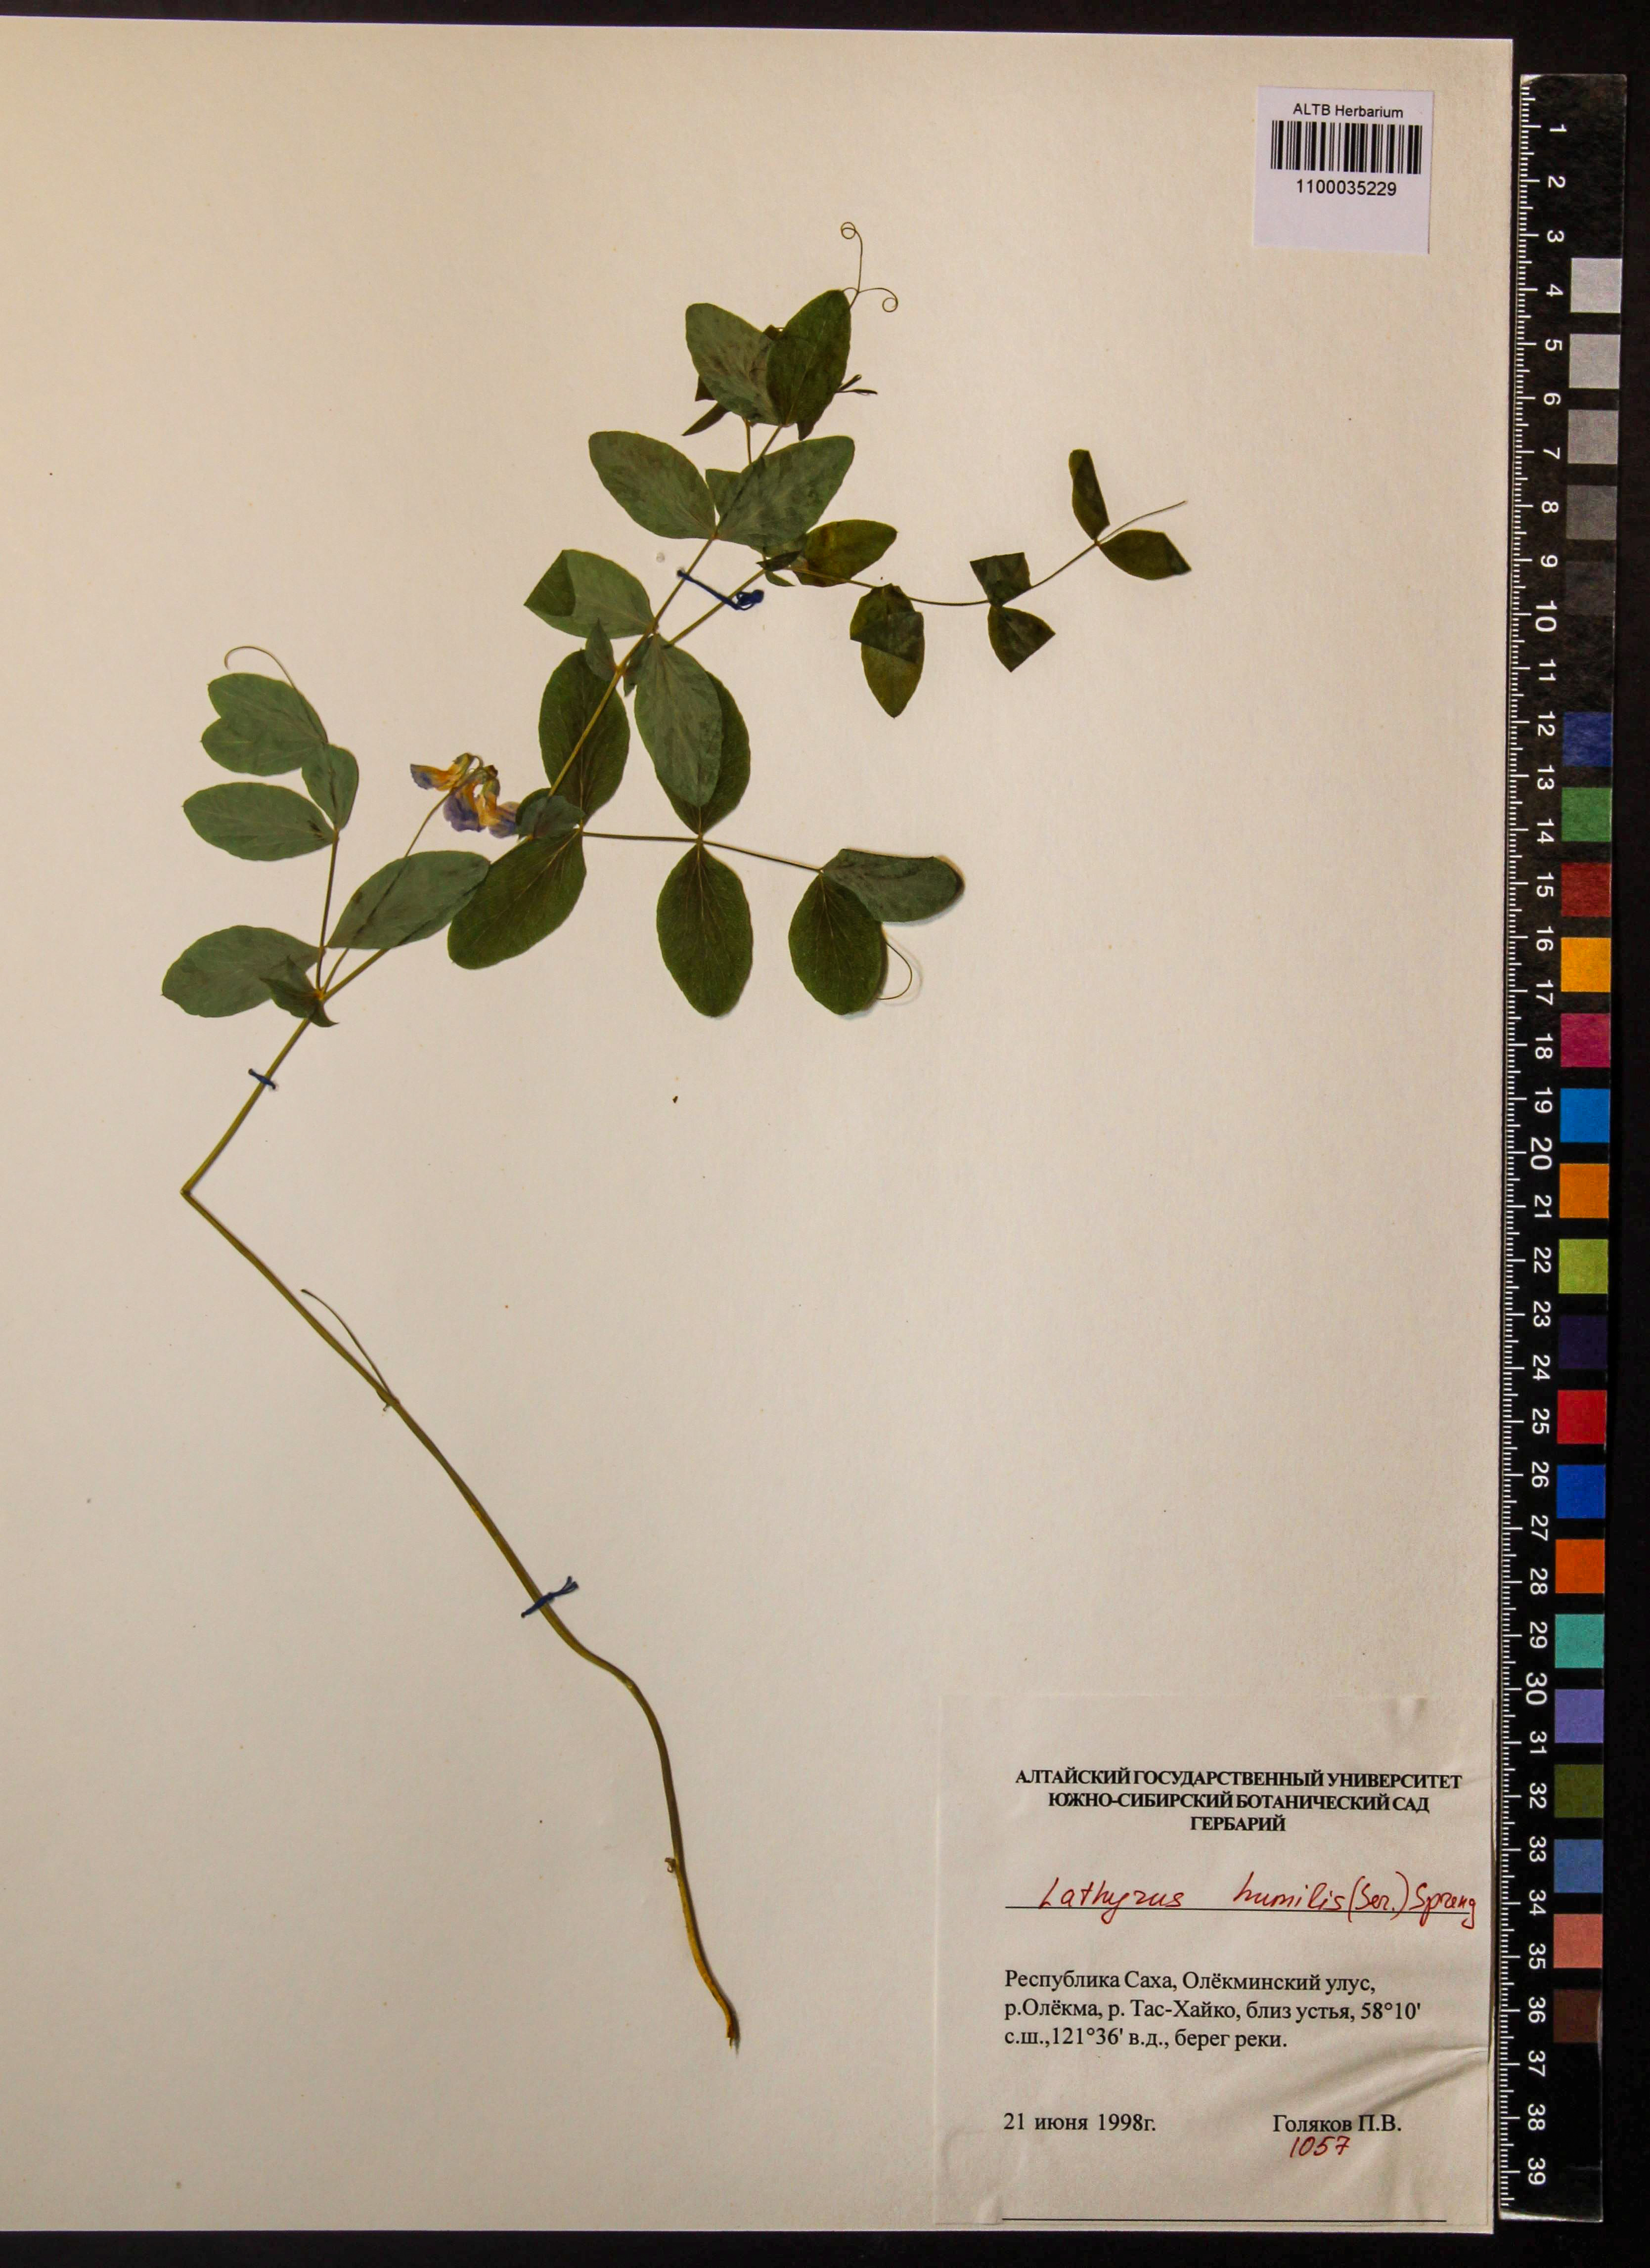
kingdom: Plantae
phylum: Tracheophyta
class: Magnoliopsida
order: Fabales
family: Fabaceae
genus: Lathyrus
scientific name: Lathyrus humilis
